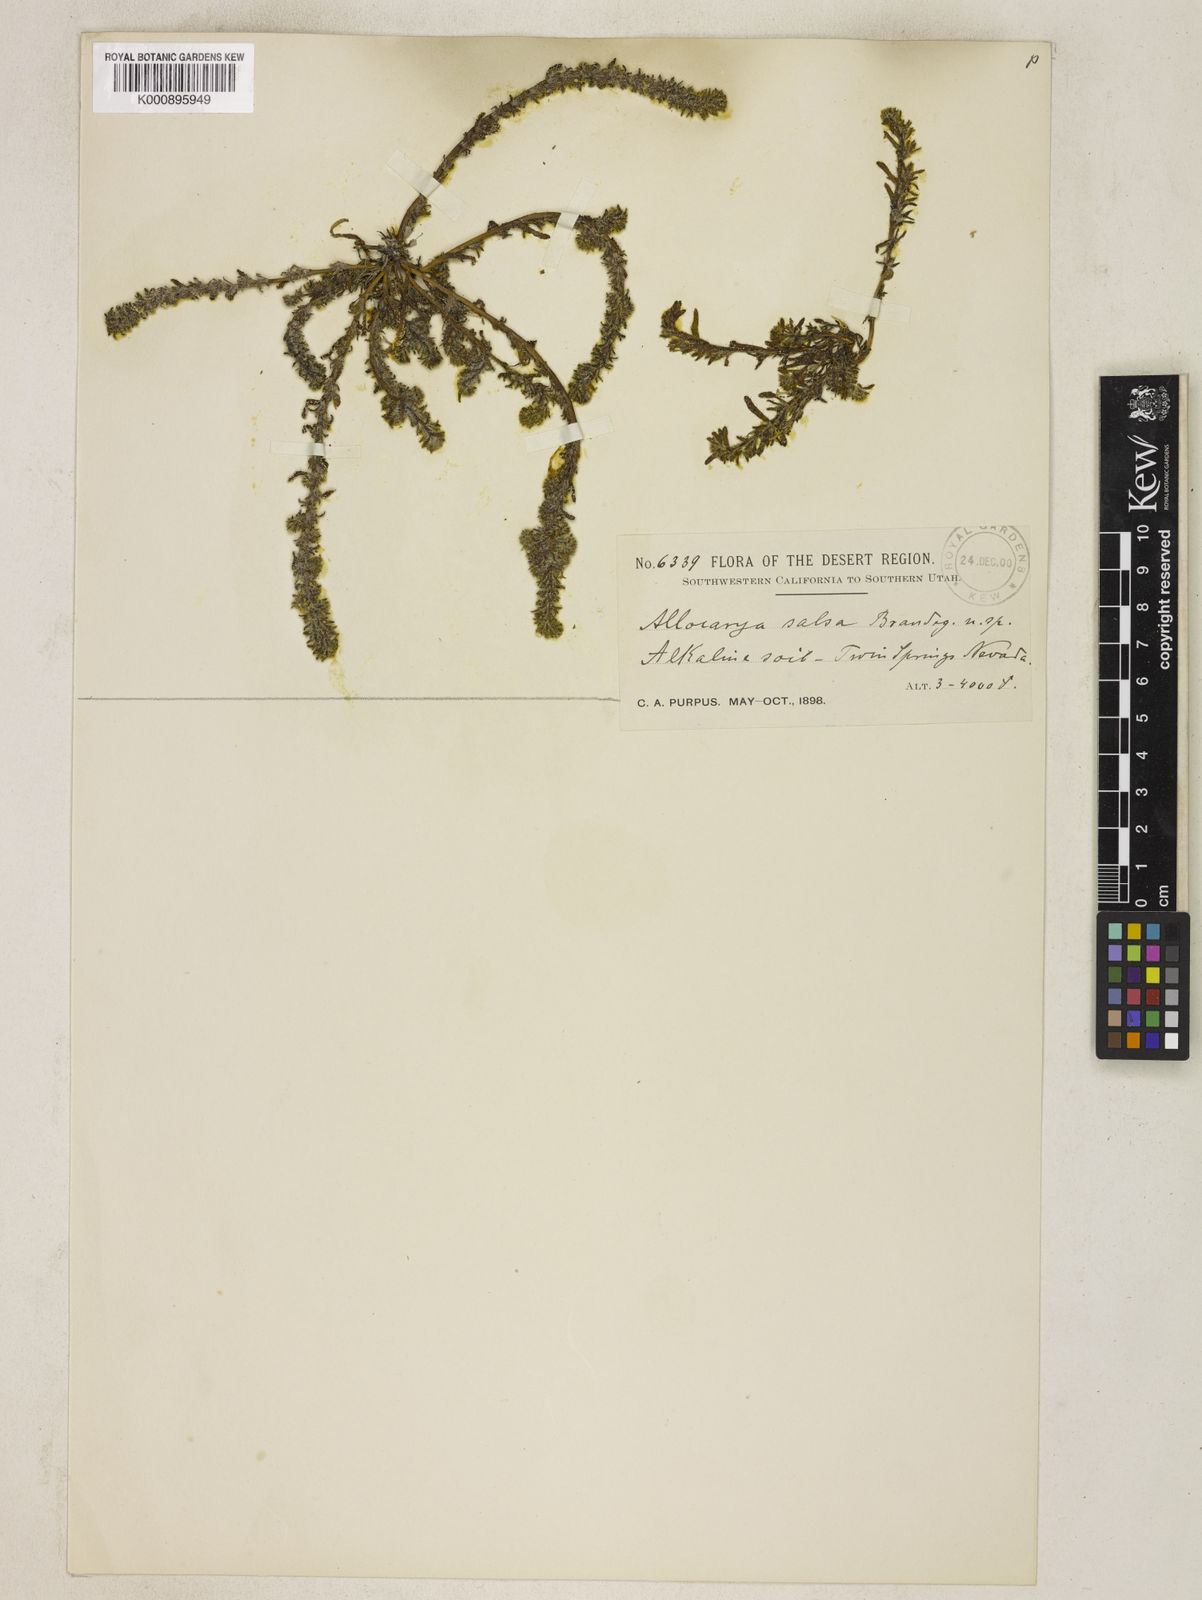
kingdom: Plantae
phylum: Tracheophyta
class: Magnoliopsida
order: Boraginales
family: Boraginaceae
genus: Plagiobothrys
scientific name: Plagiobothrys salsus
